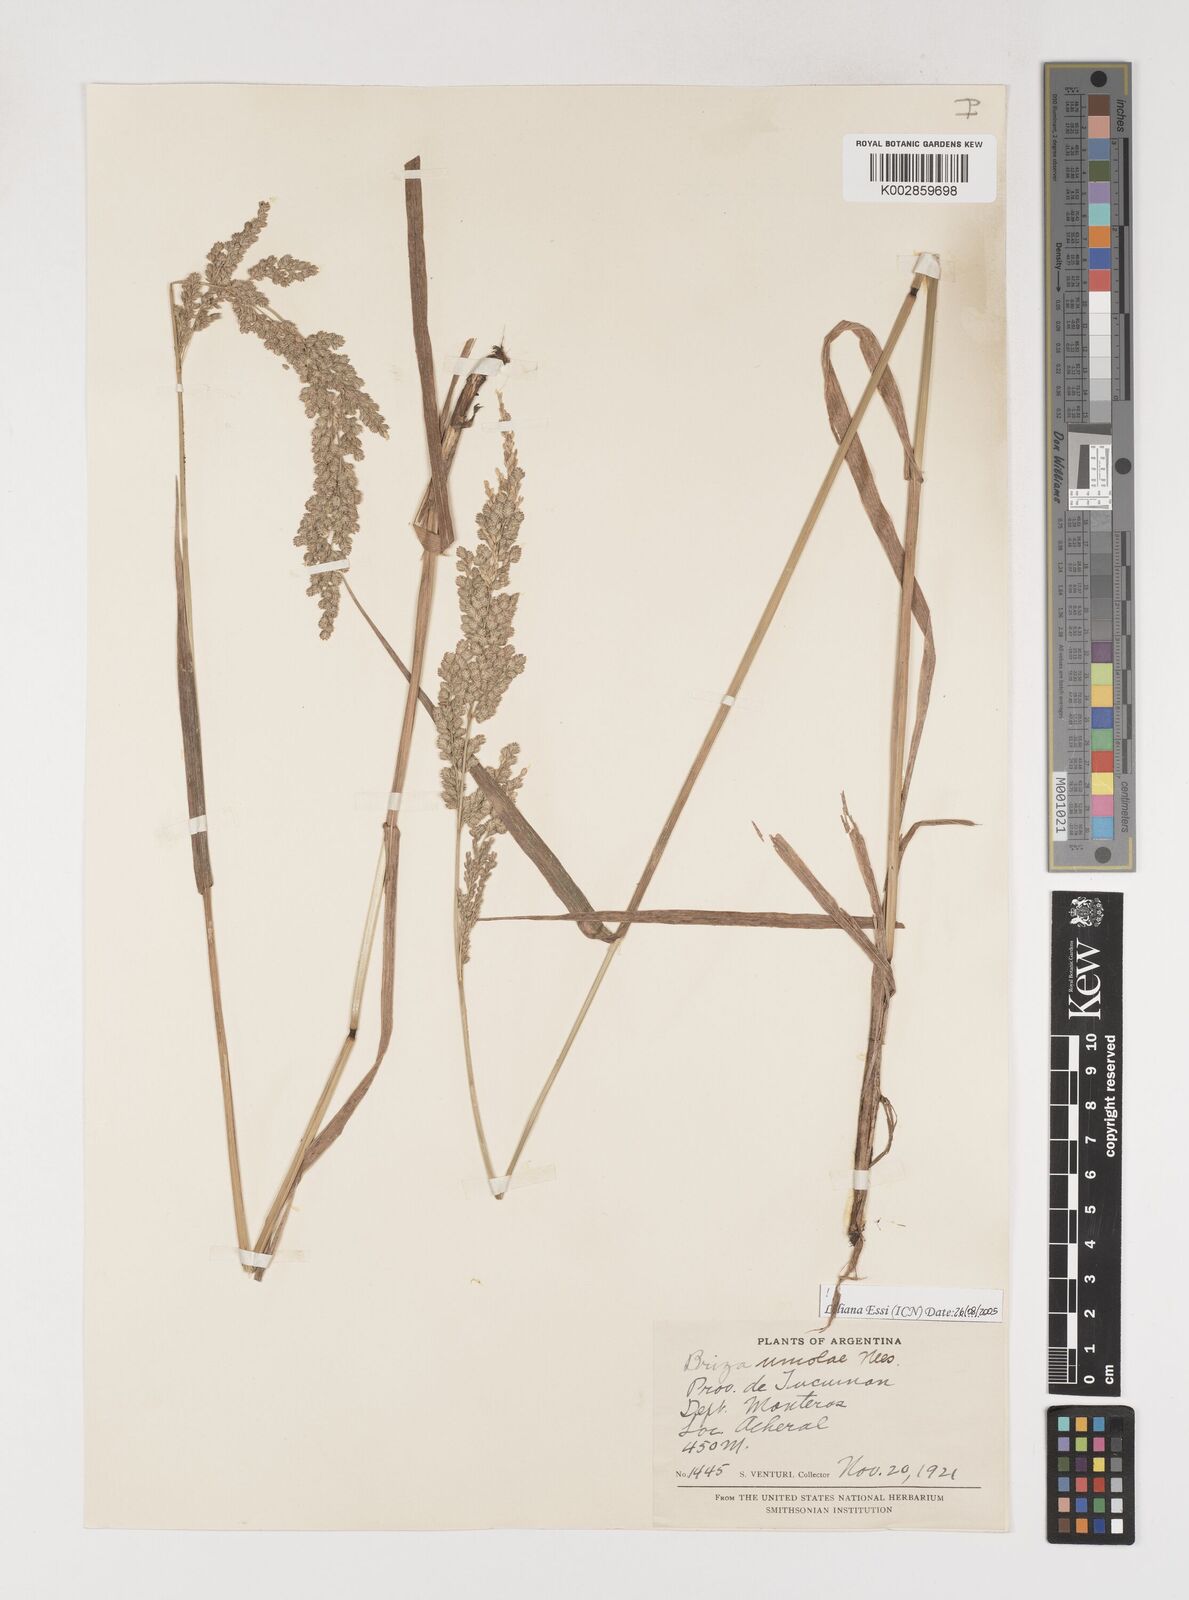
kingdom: Plantae
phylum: Tracheophyta
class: Liliopsida
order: Poales
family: Poaceae
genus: Poidium
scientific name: Poidium uniolae
